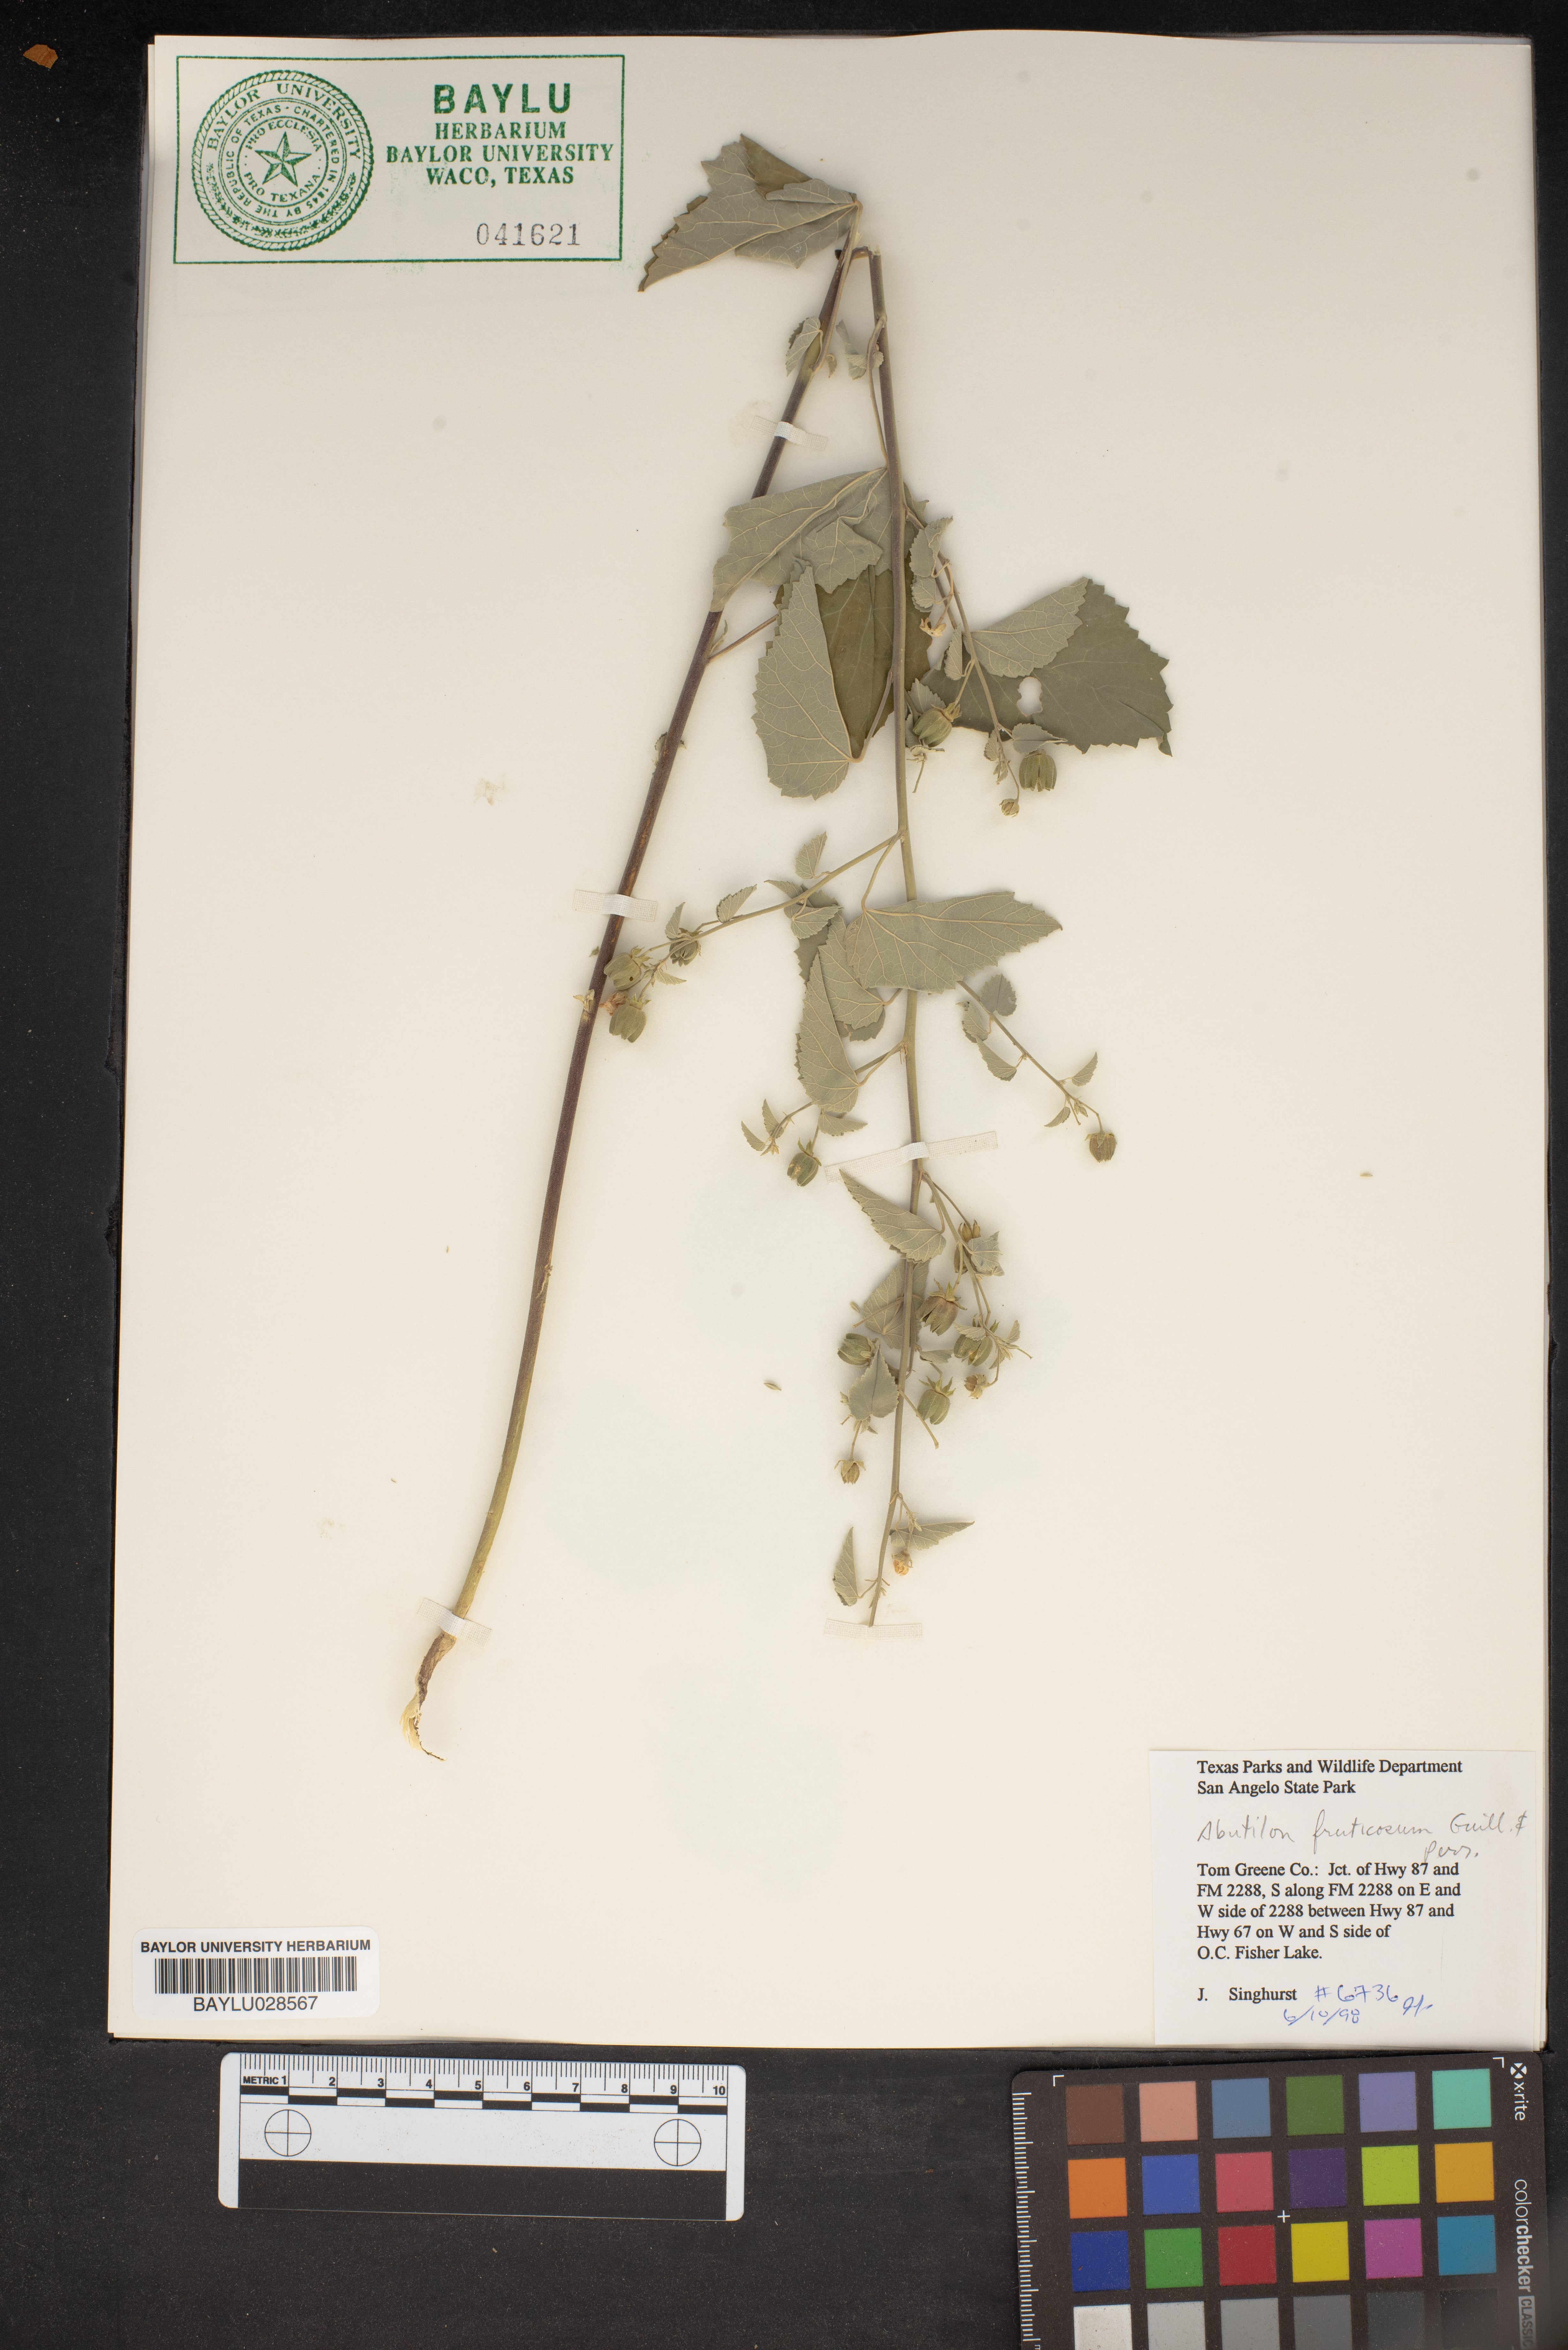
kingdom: Plantae
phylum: Tracheophyta
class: Magnoliopsida
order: Malvales
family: Malvaceae
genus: Abutilon
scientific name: Abutilon fruticosum
